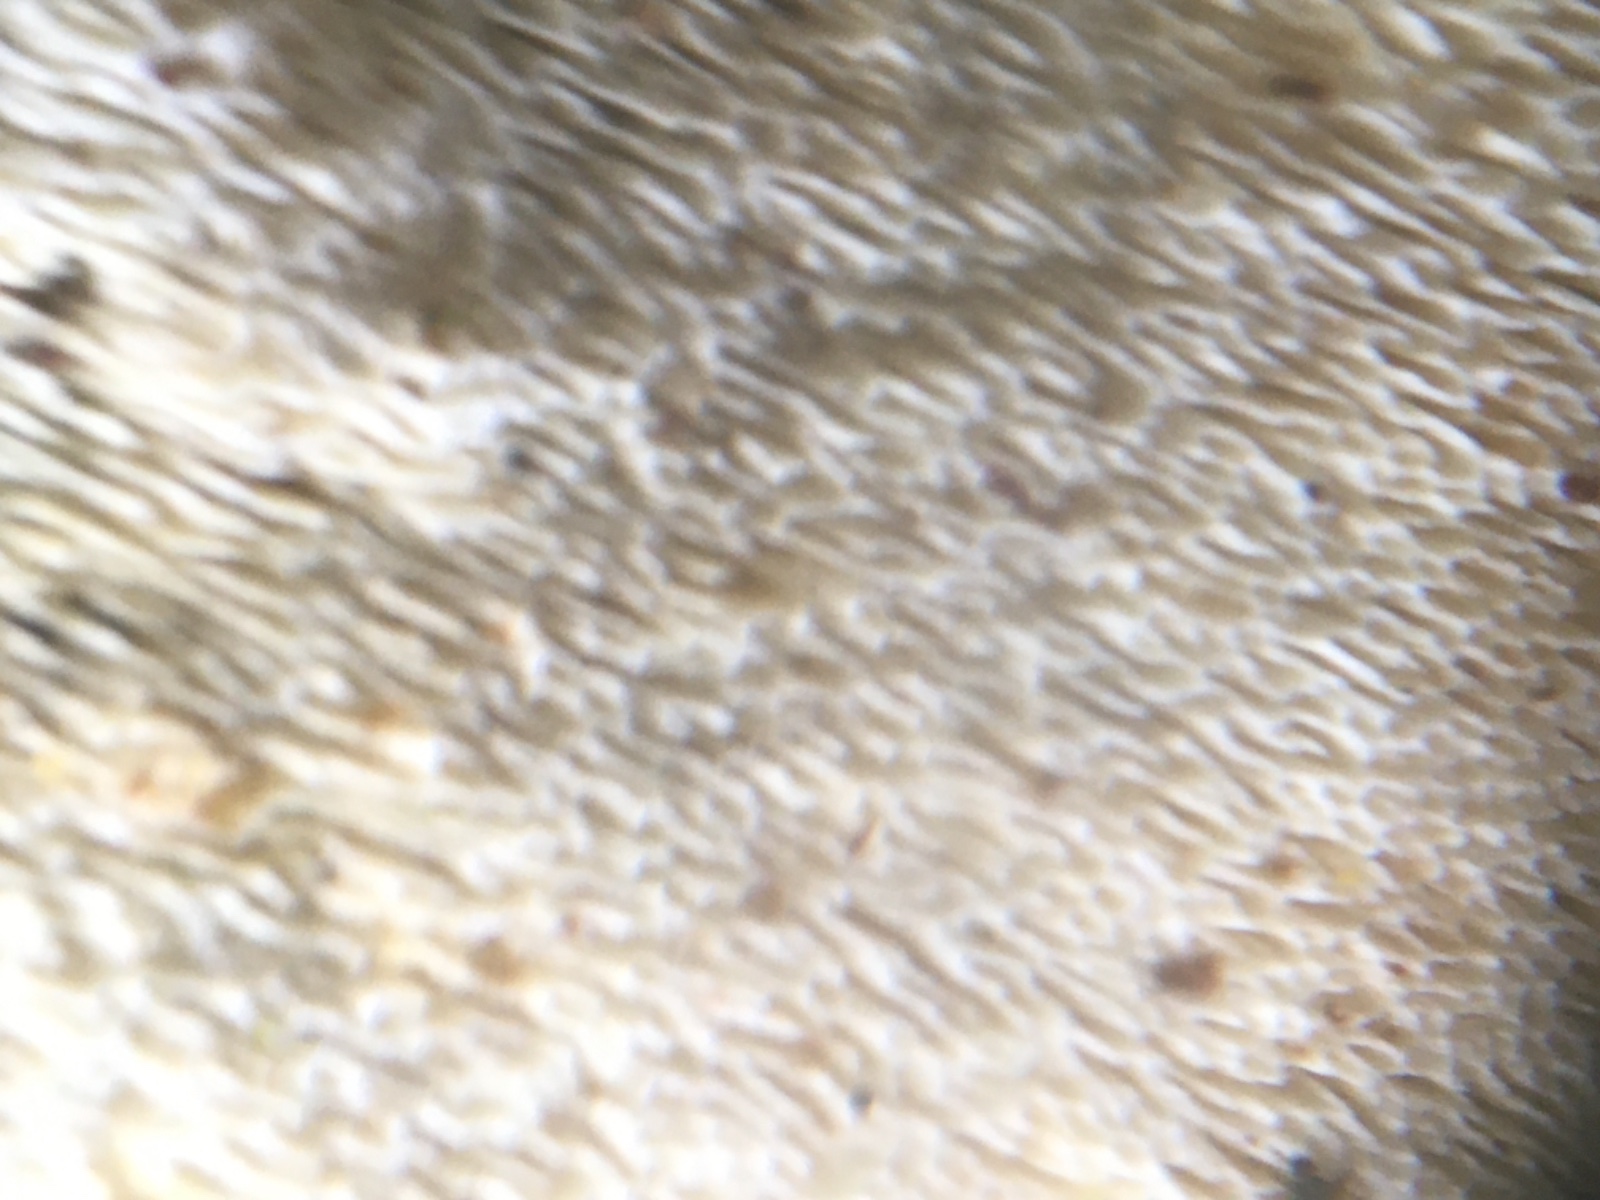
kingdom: Fungi
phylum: Basidiomycota
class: Agaricomycetes
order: Hymenochaetales
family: Schizoporaceae
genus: Xylodon
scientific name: Xylodon
